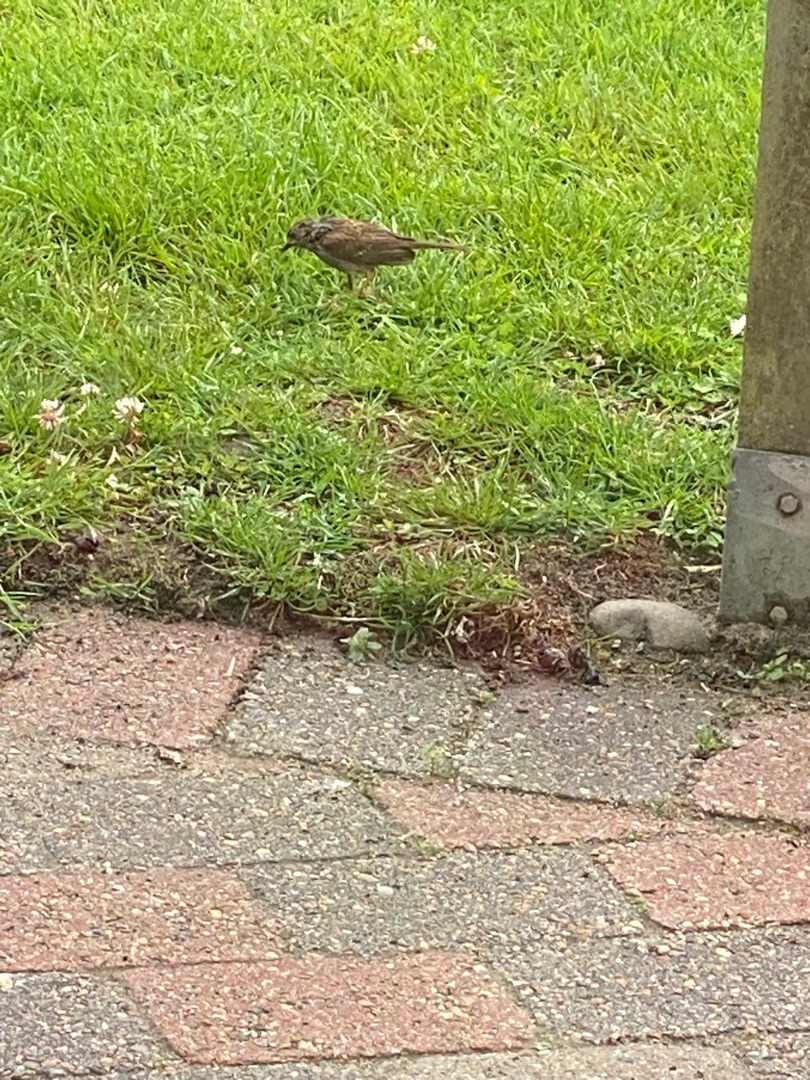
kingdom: Animalia
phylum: Chordata
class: Aves
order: Passeriformes
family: Prunellidae
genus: Prunella
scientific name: Prunella modularis
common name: Jernspurv
